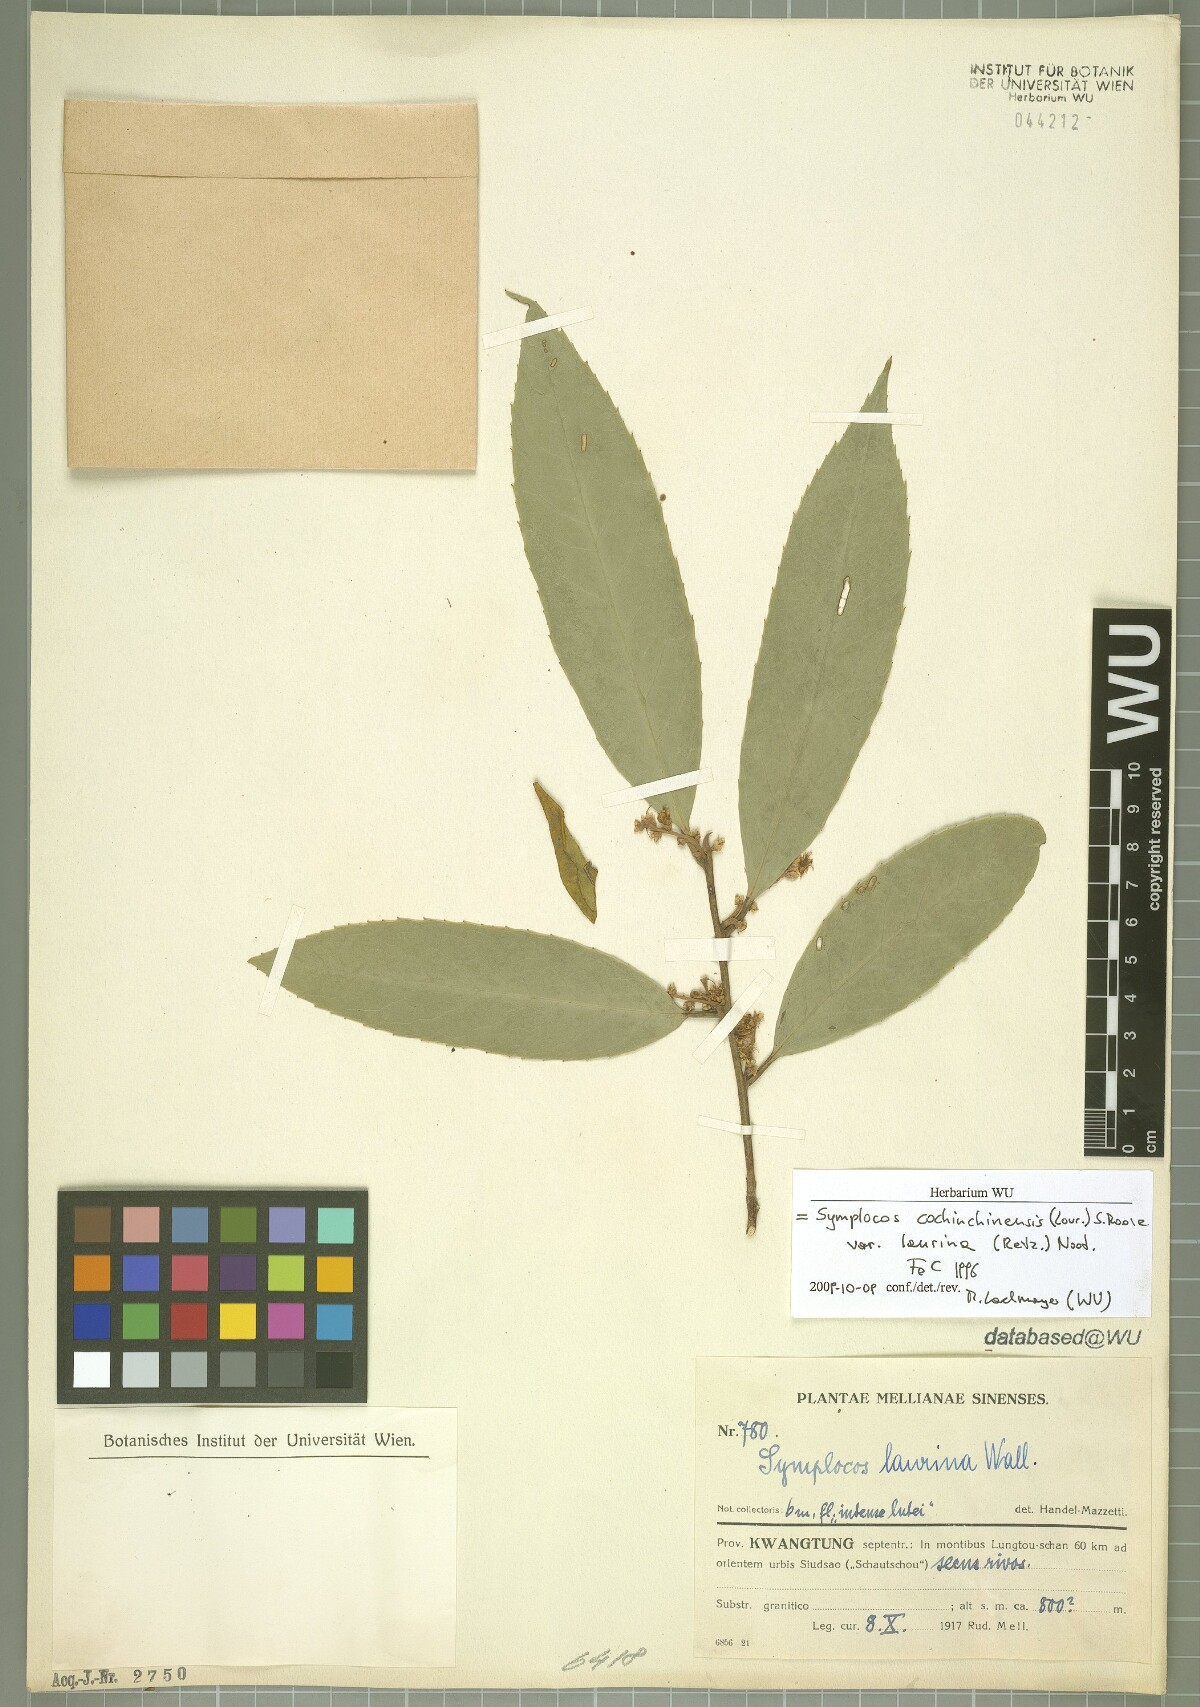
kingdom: Plantae
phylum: Tracheophyta
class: Magnoliopsida
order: Ericales
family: Symplocaceae
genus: Symplocos
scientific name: Symplocos acuminata
